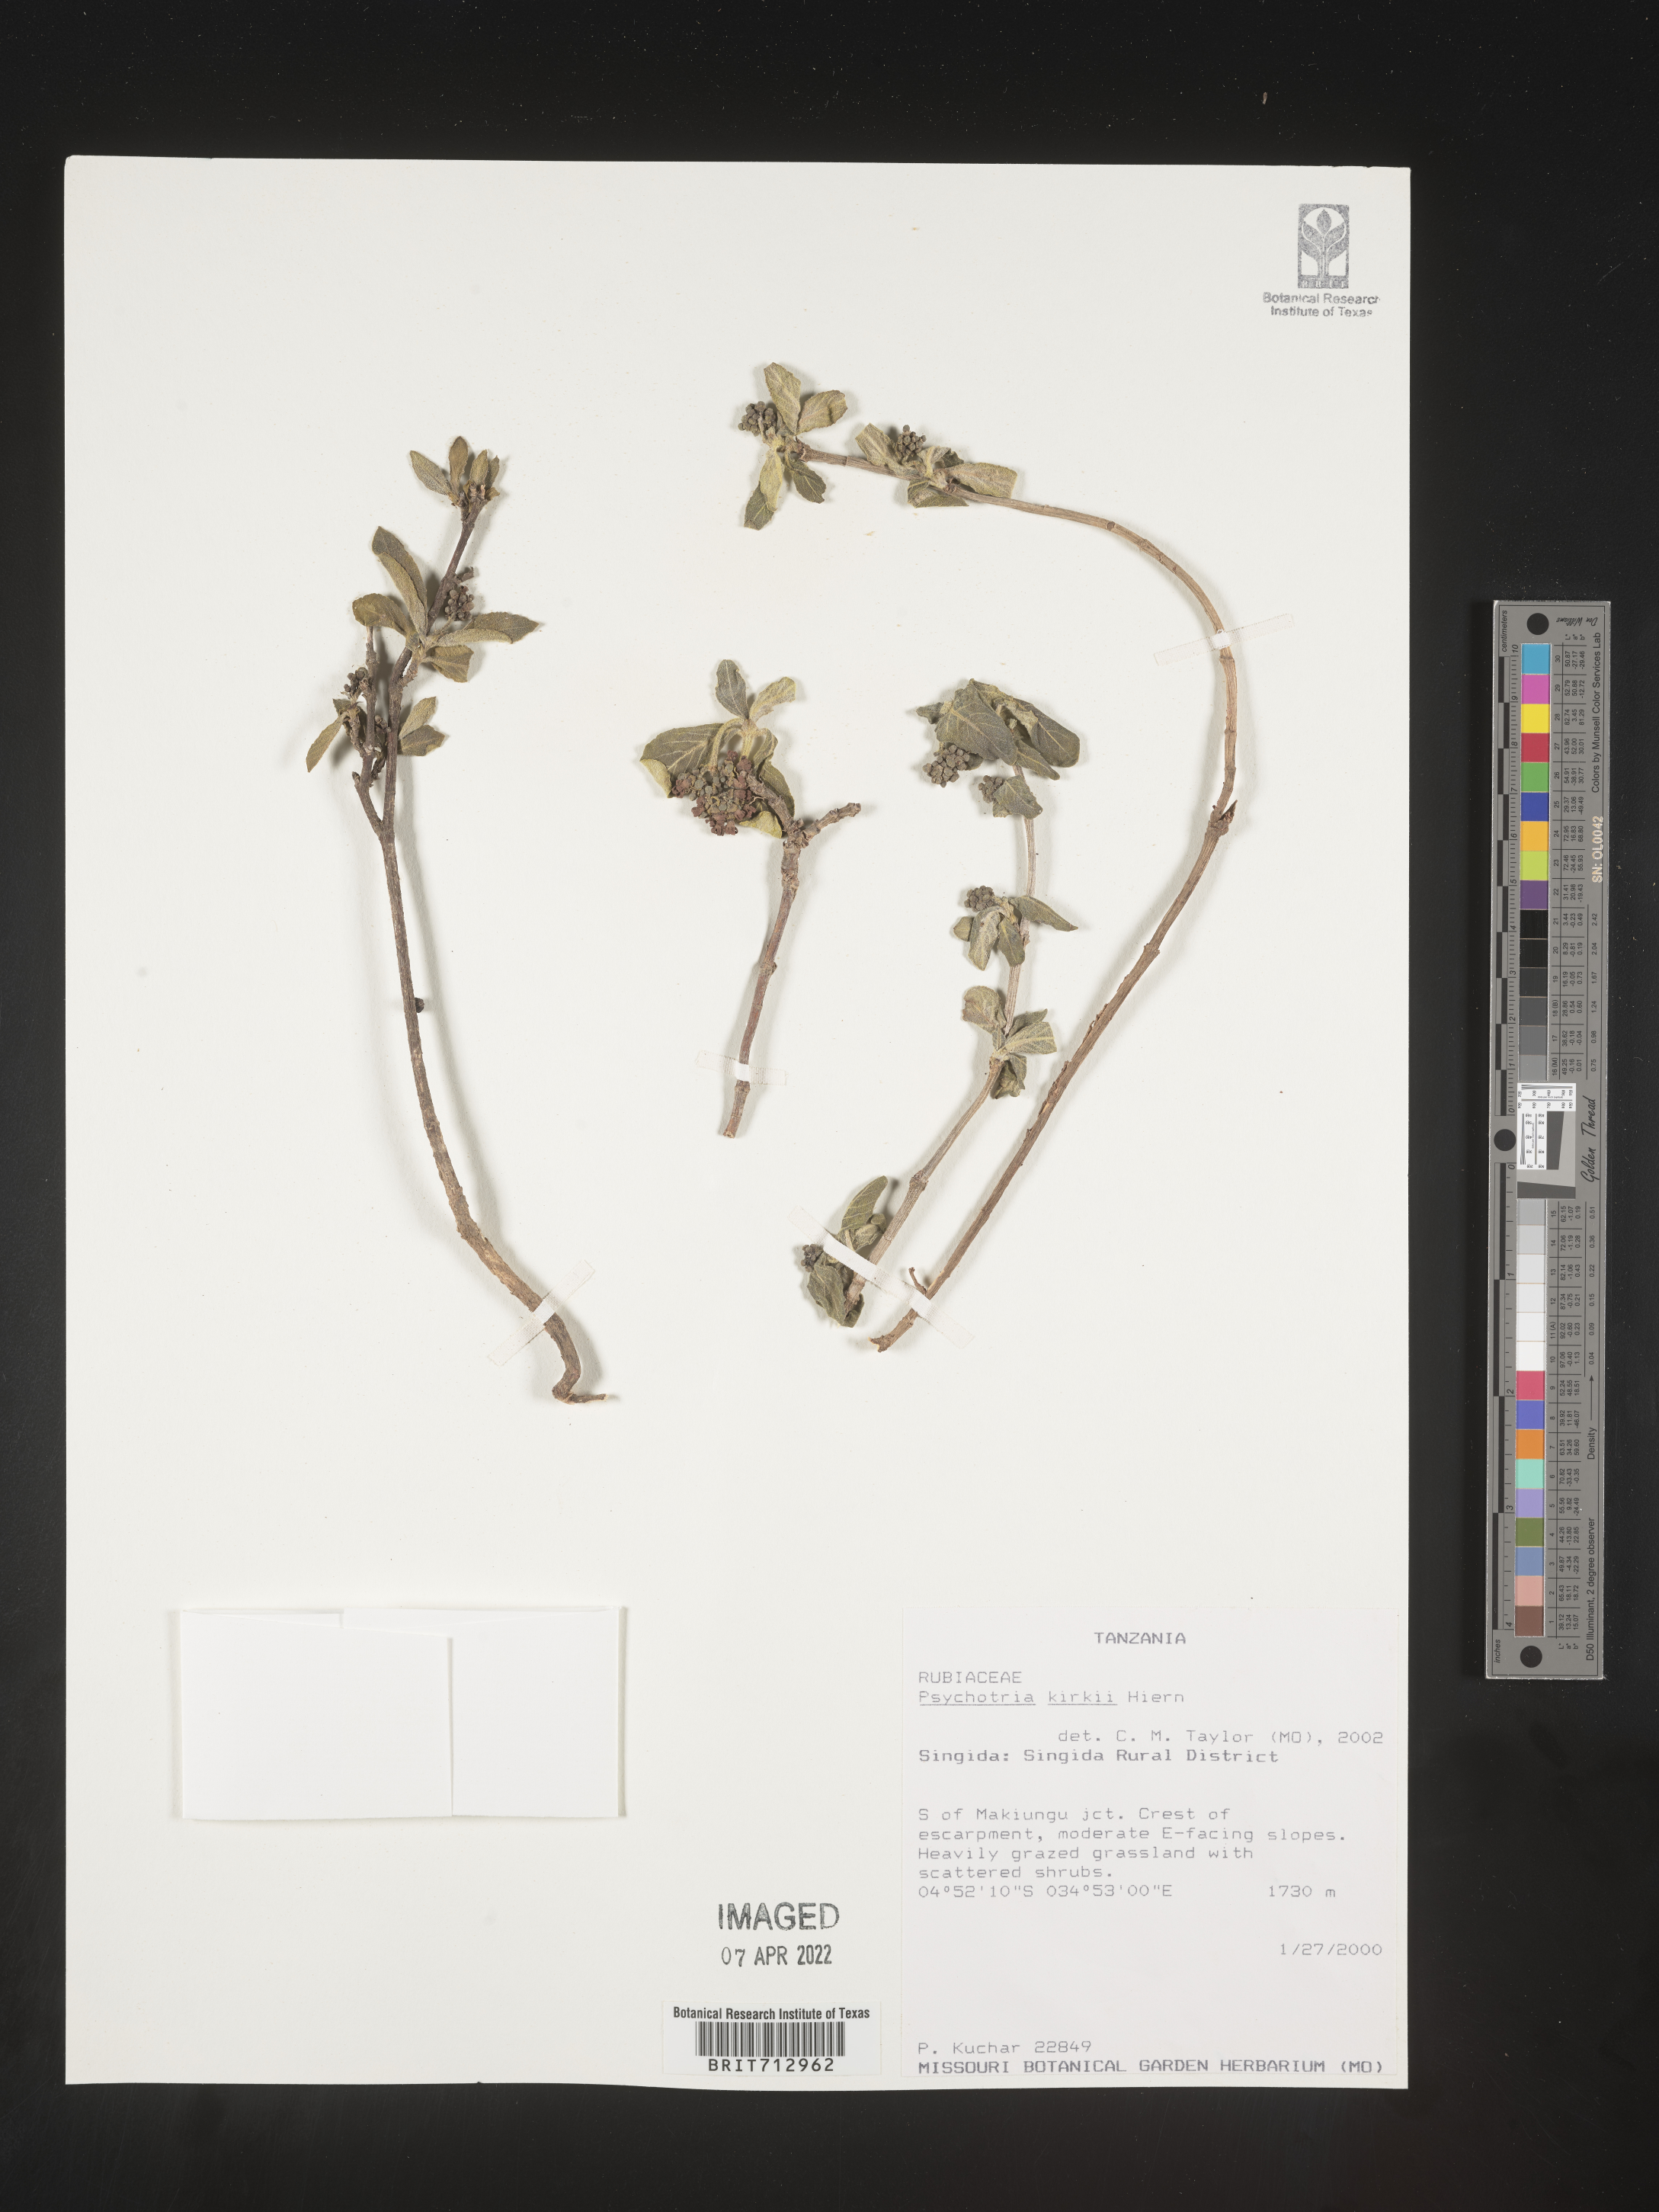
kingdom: Plantae
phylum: Tracheophyta
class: Magnoliopsida
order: Gentianales
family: Rubiaceae
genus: Psychotria
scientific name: Psychotria punctata
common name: Dotted wild coffee
